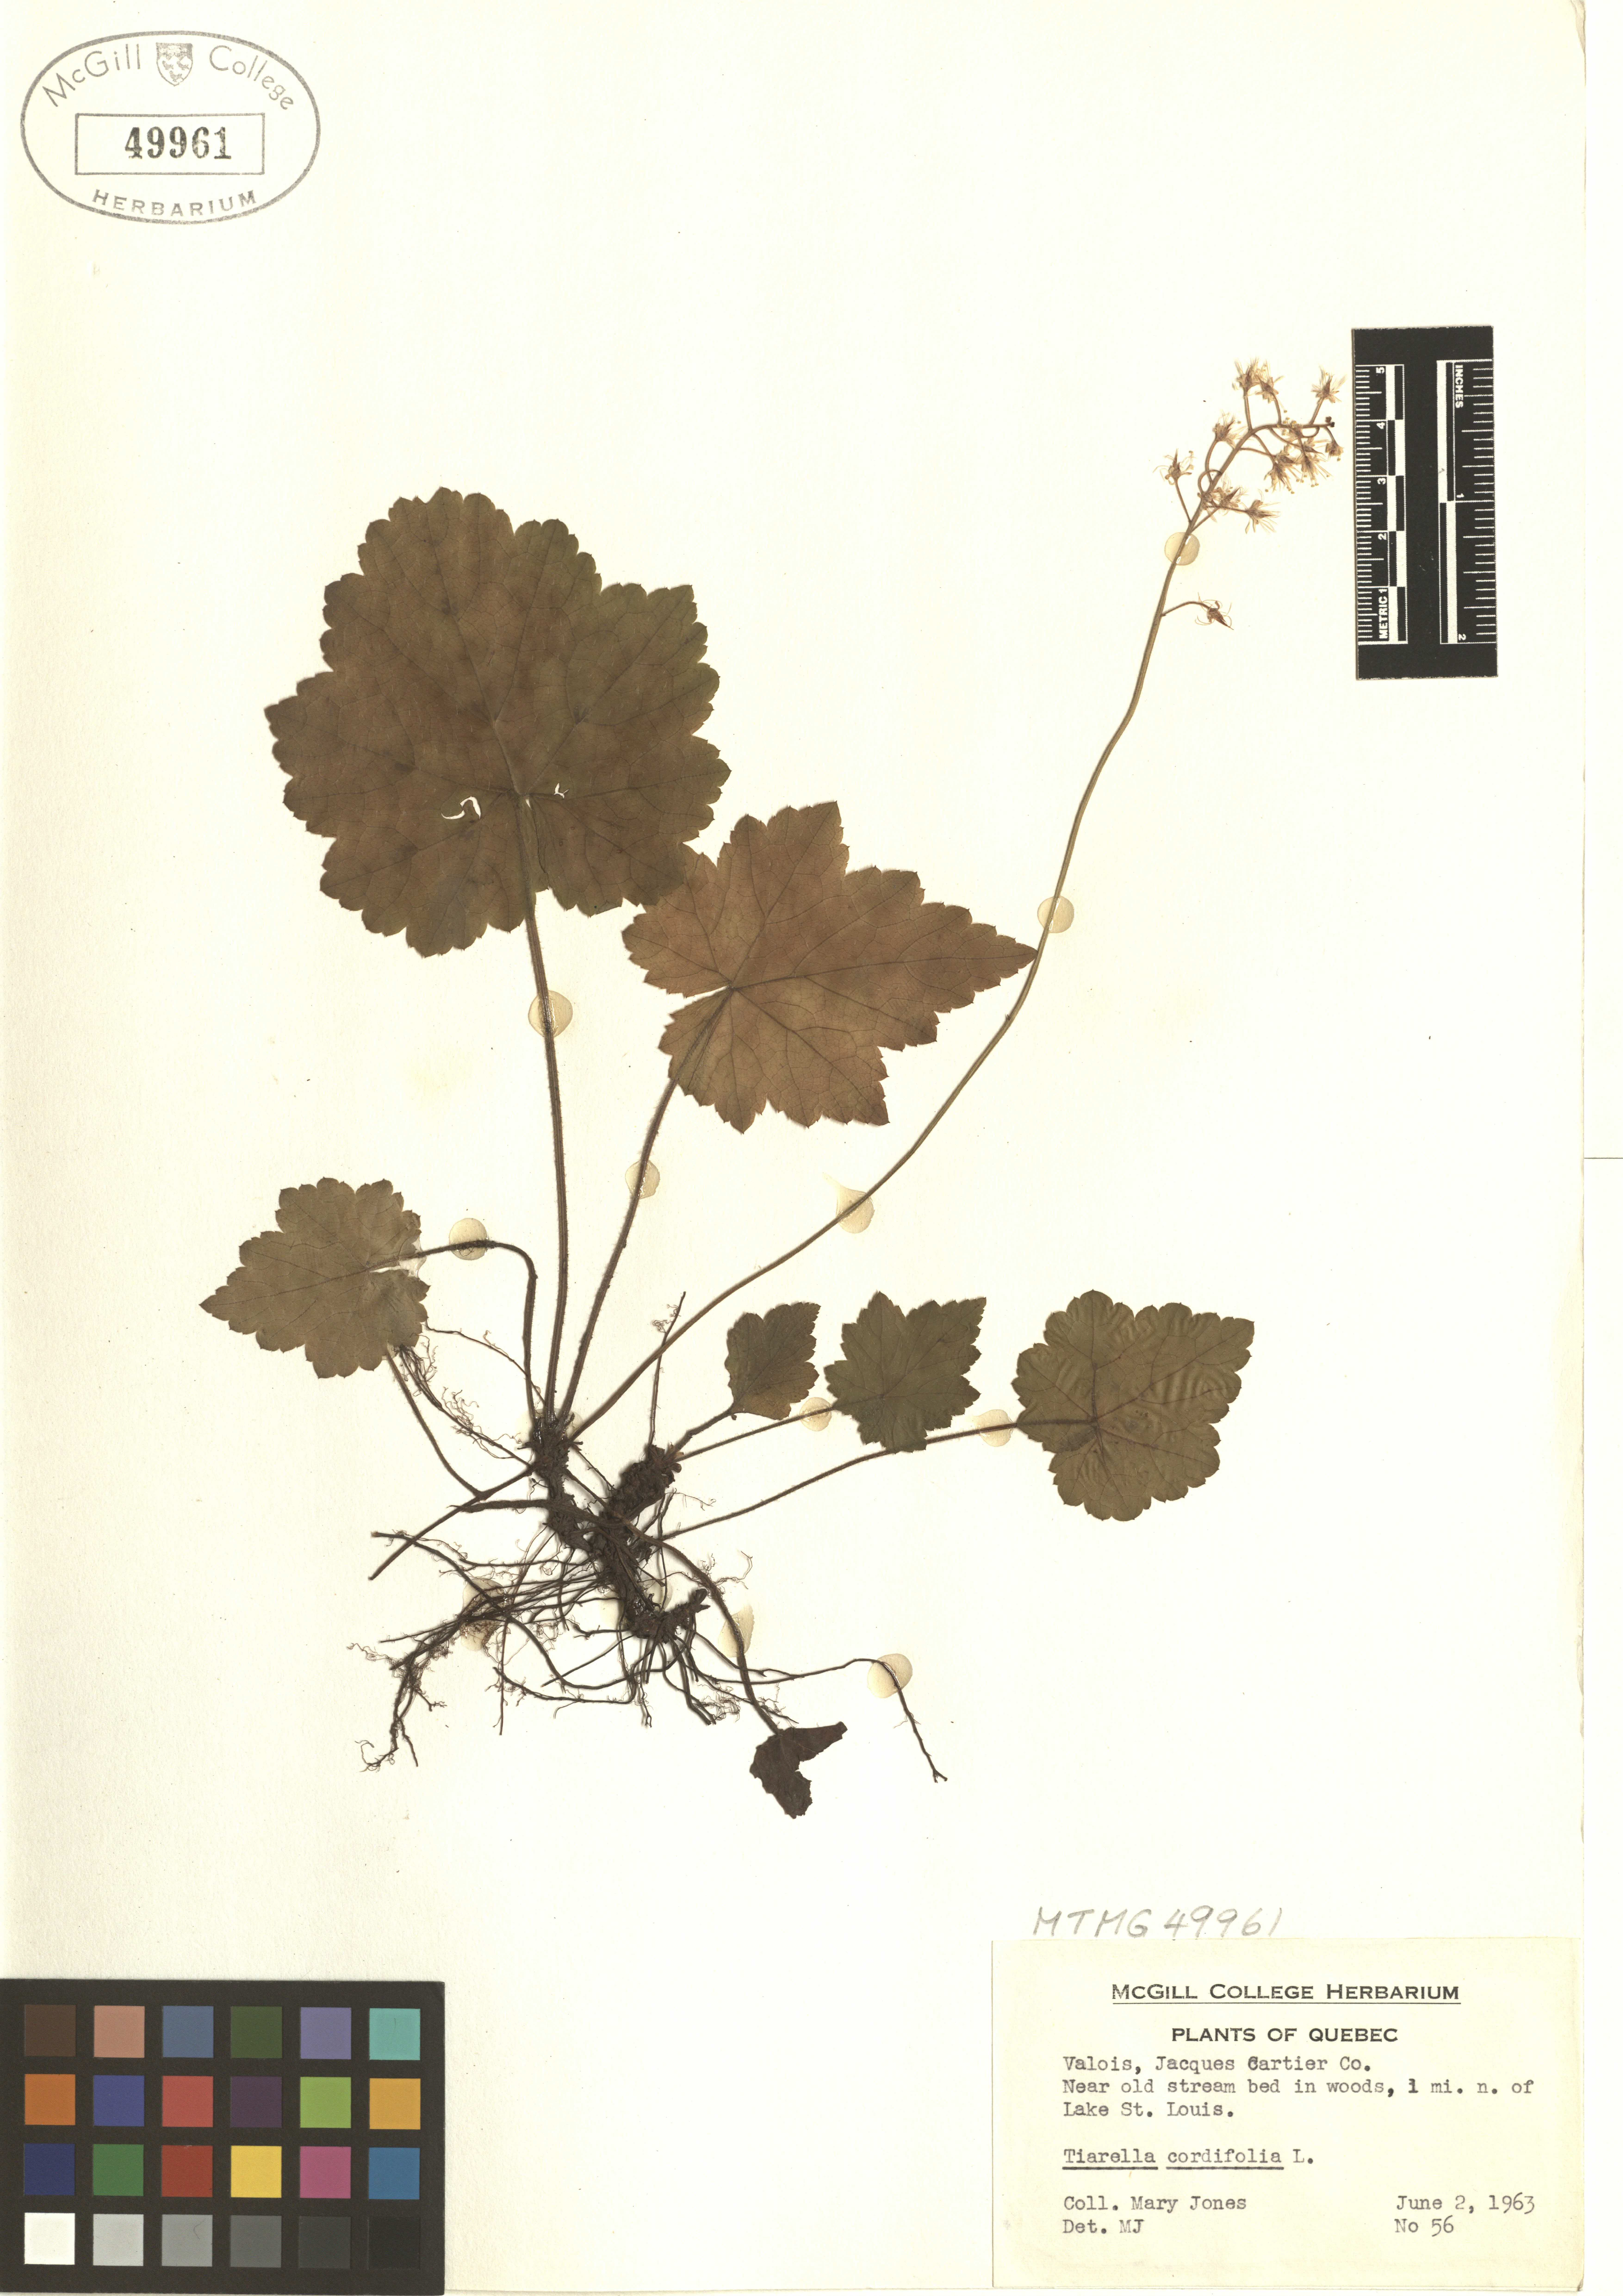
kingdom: Plantae
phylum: Tracheophyta
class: Magnoliopsida
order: Saxifragales
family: Saxifragaceae
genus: Tiarella
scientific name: Tiarella cordifolia
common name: Foamflower
